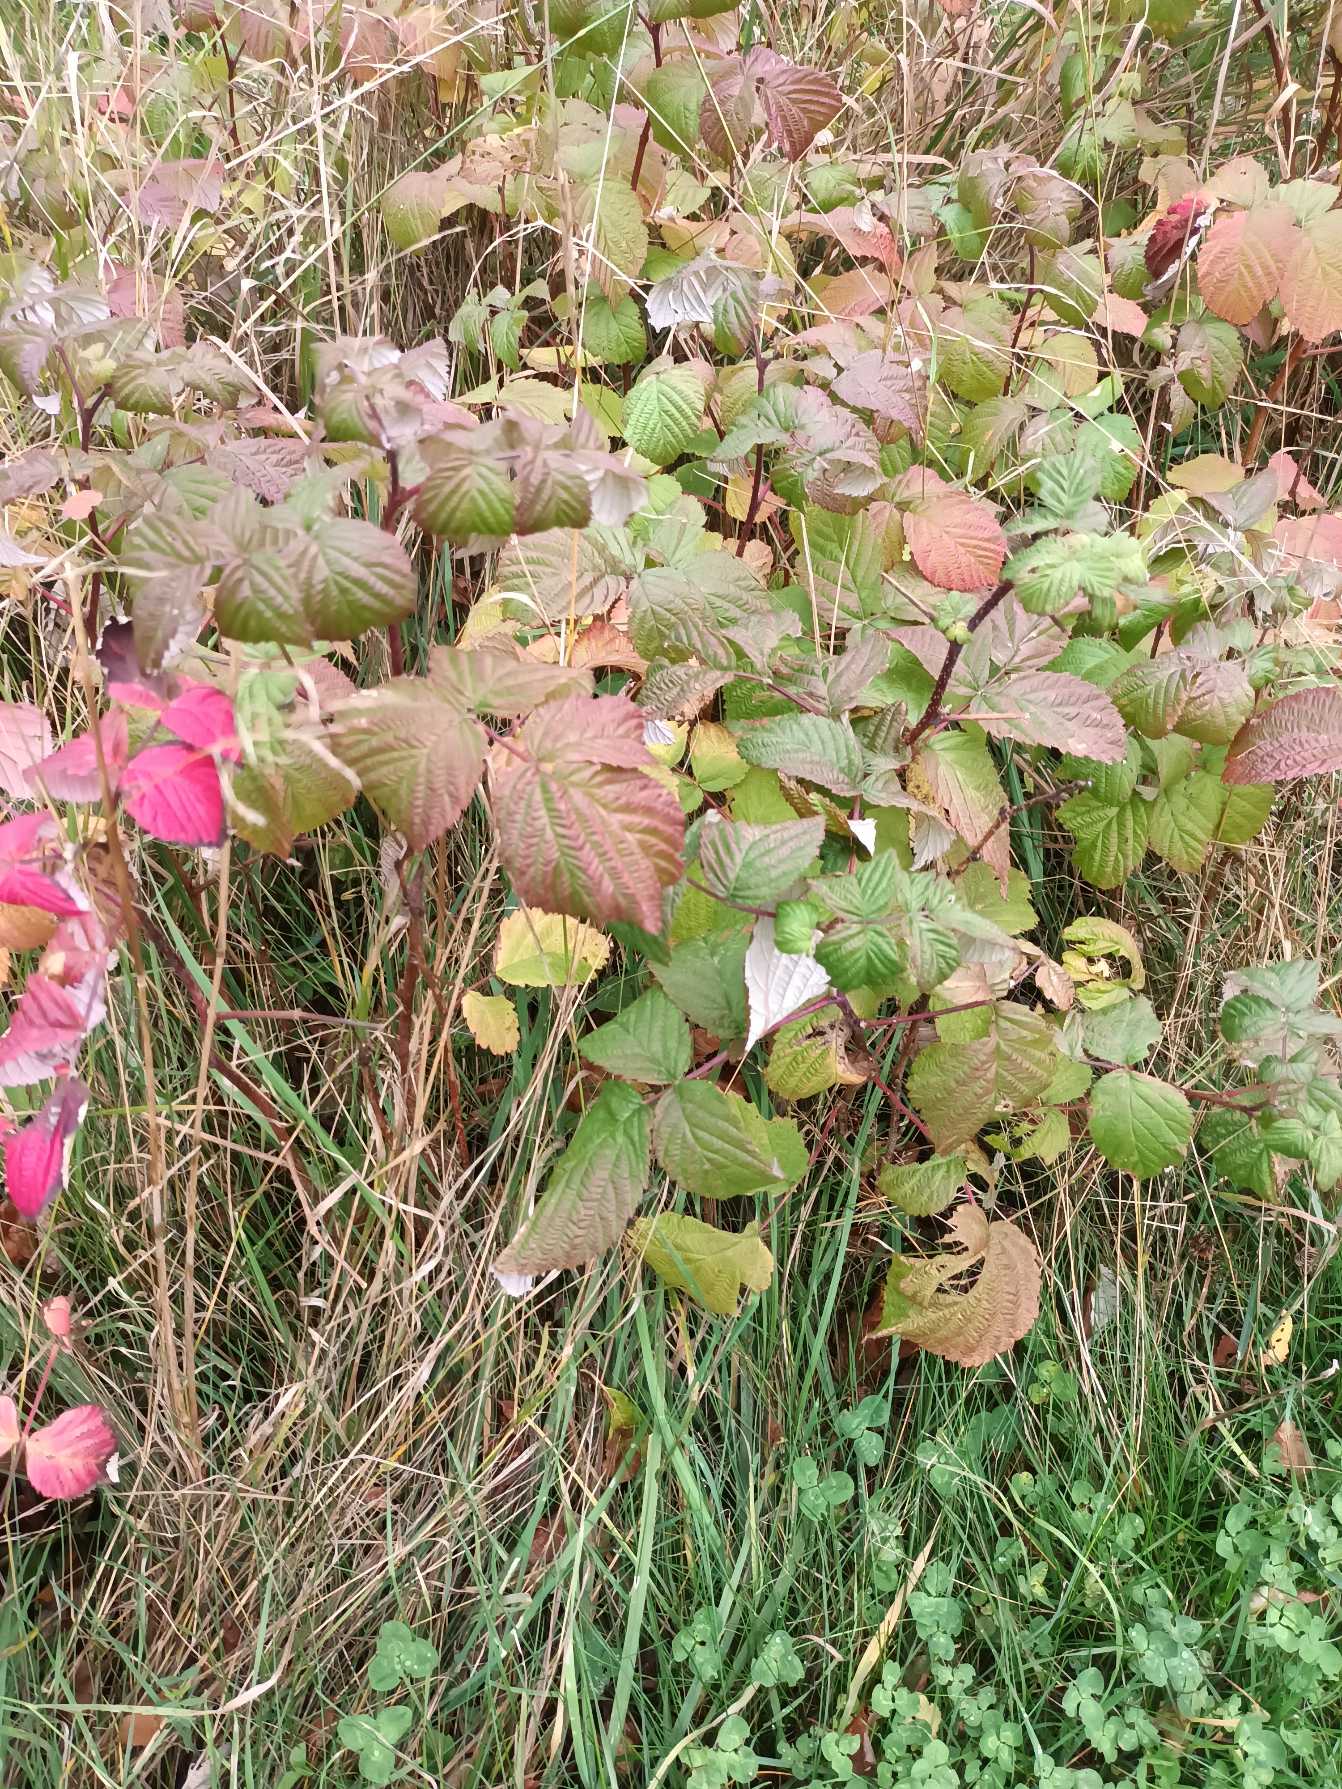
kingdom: Plantae
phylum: Tracheophyta
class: Magnoliopsida
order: Rosales
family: Rosaceae
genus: Rubus
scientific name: Rubus idaeus
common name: Hindbær
